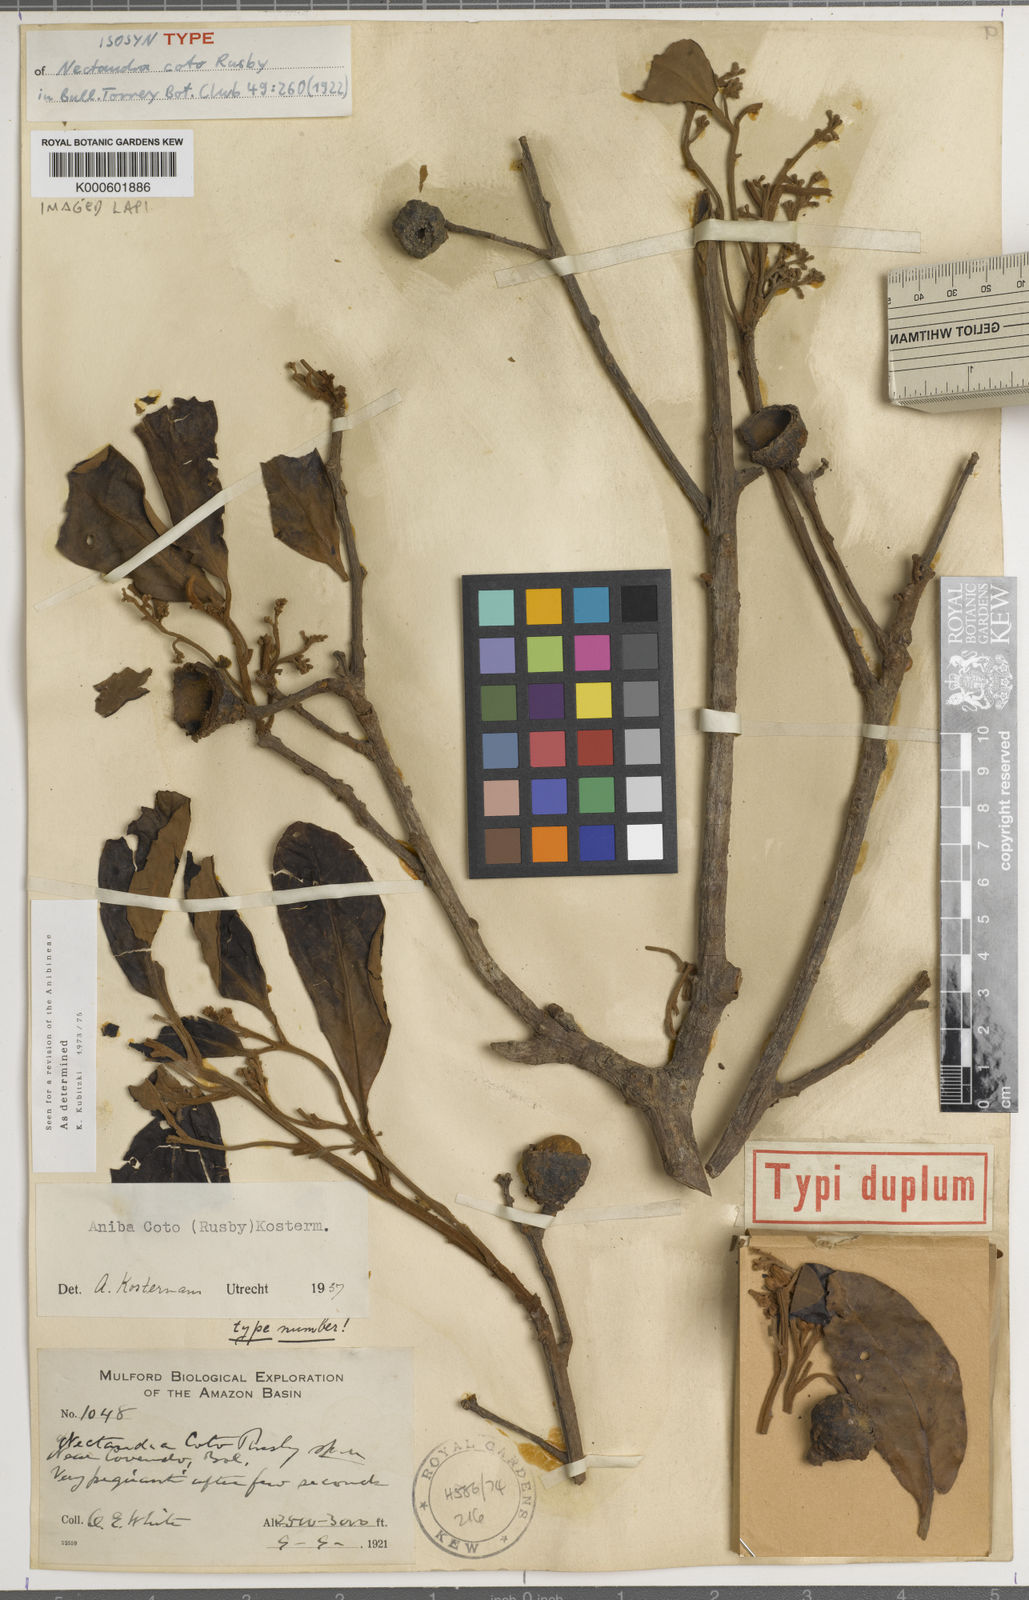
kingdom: Plantae
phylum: Tracheophyta
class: Magnoliopsida
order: Laurales
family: Lauraceae
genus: Aniba
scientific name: Aniba coto
